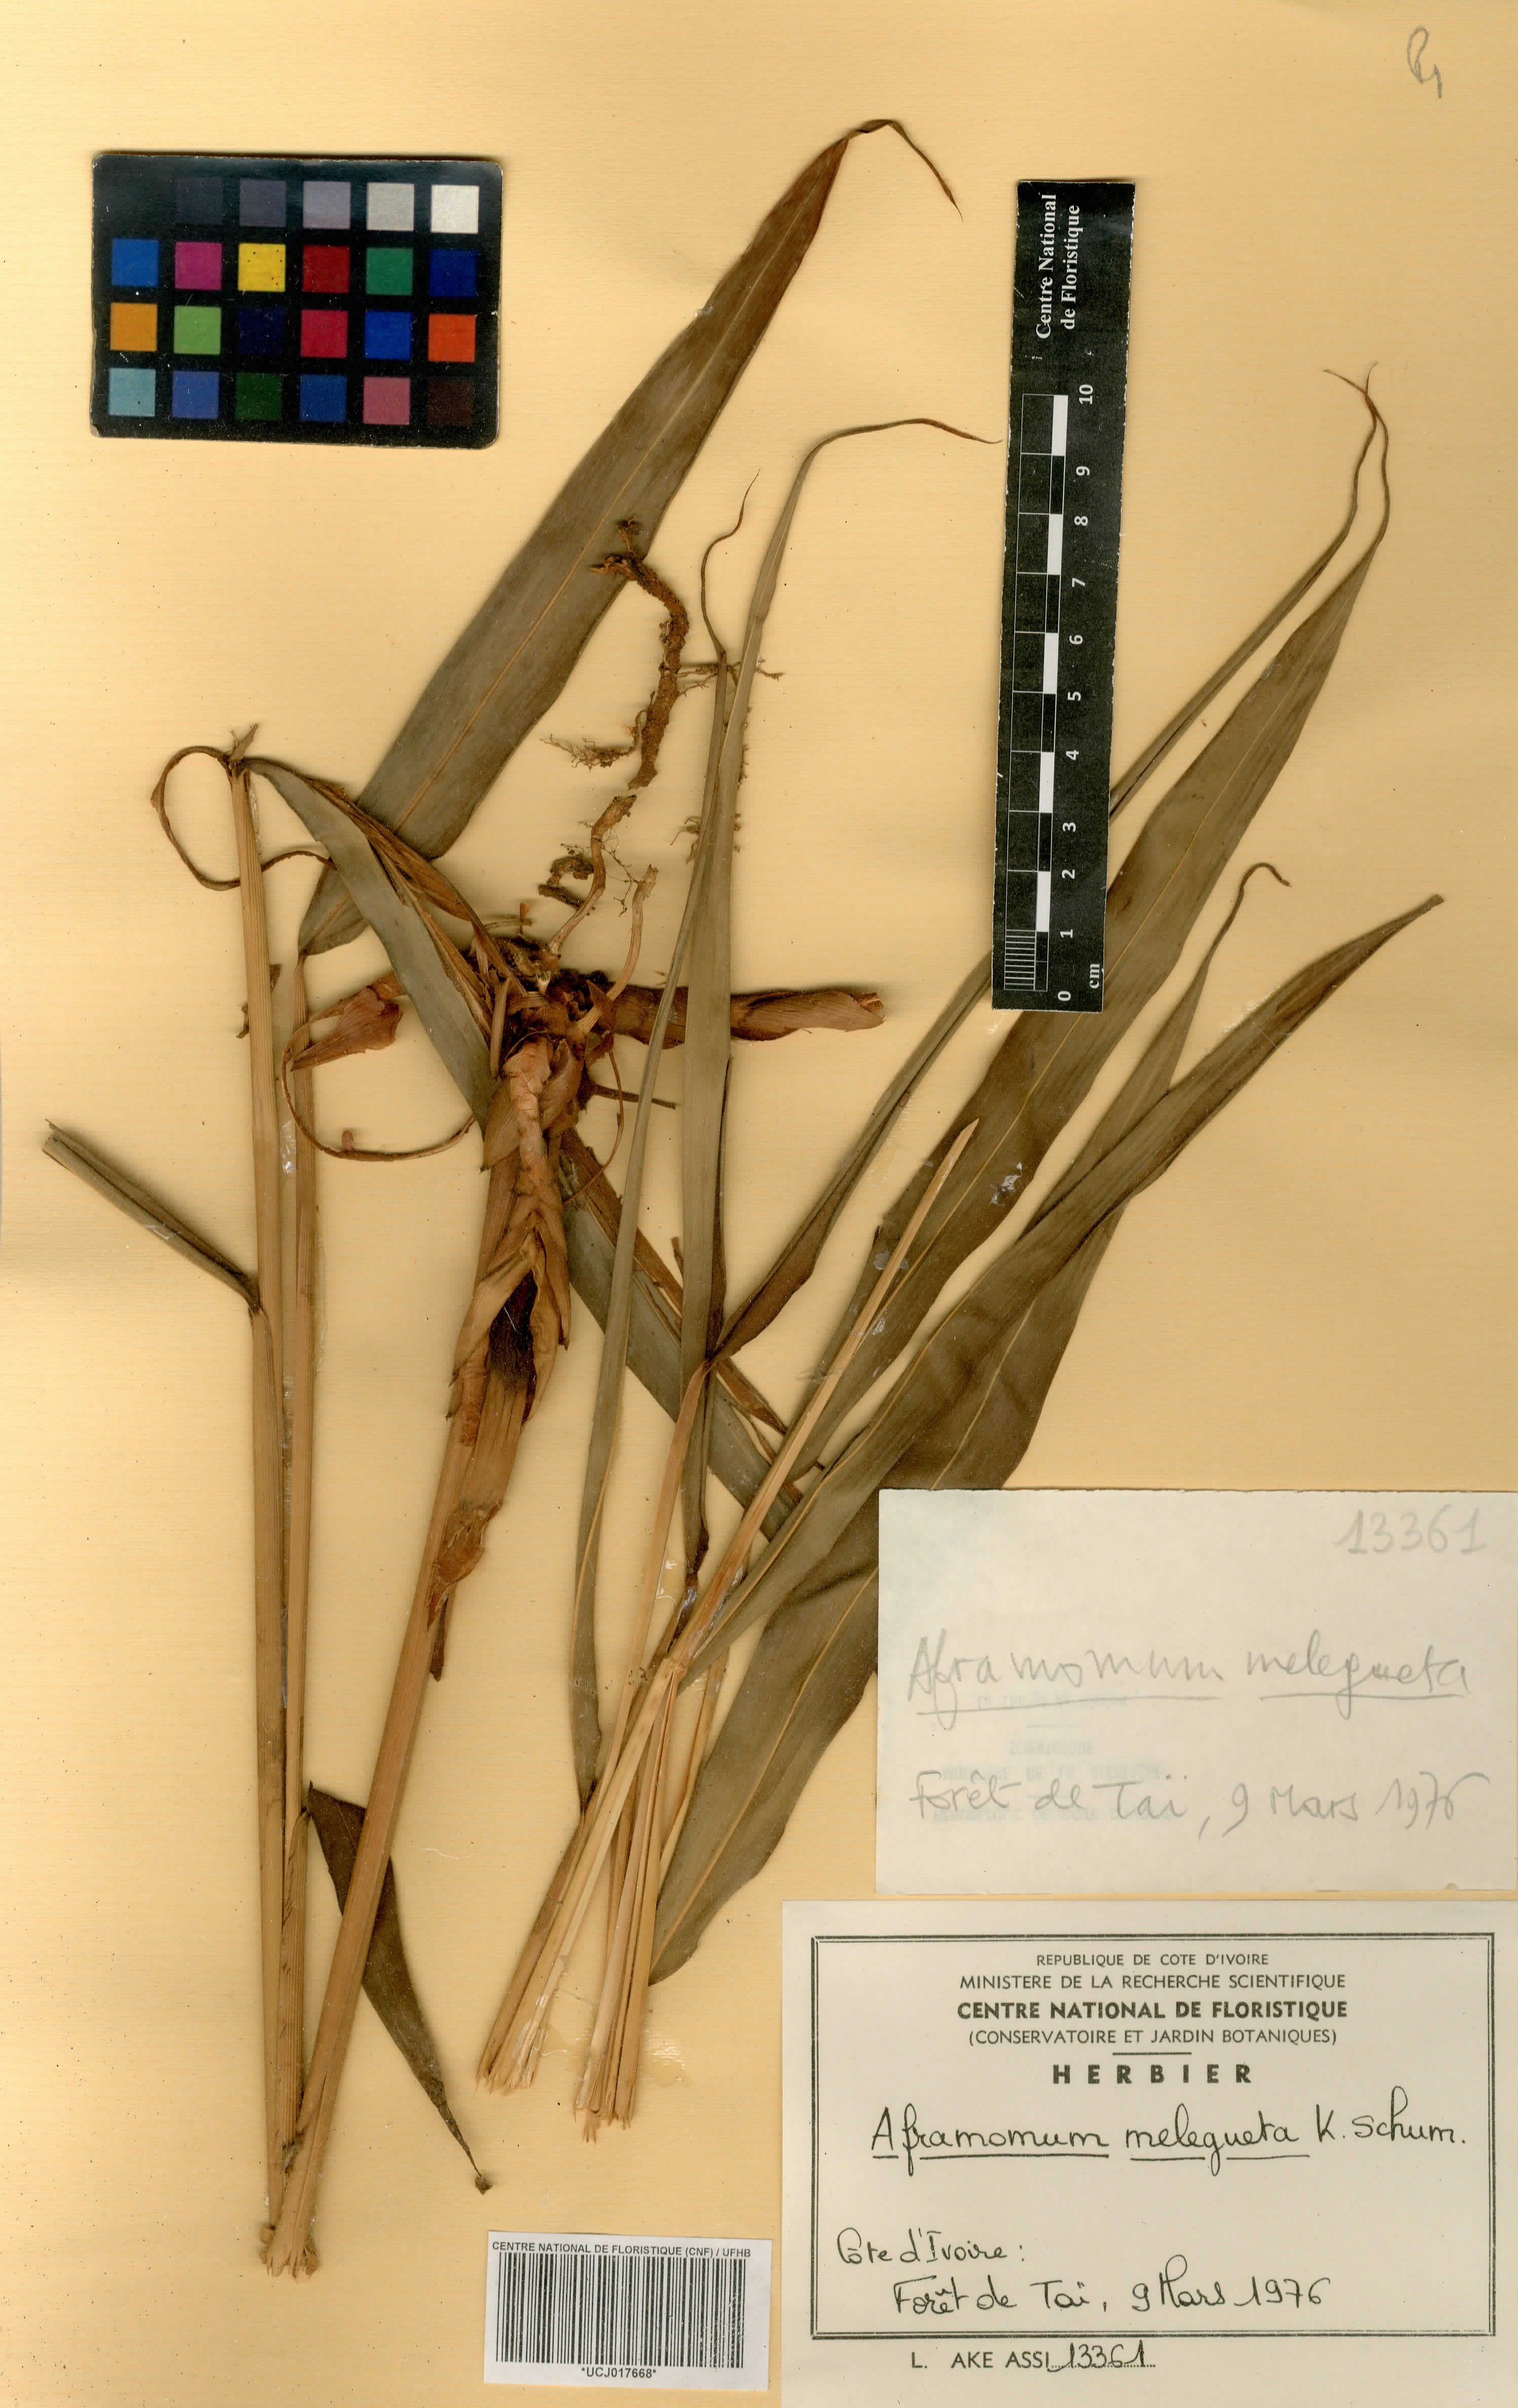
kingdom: Plantae
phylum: Tracheophyta
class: Liliopsida
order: Zingiberales
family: Zingiberaceae
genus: Aframomum
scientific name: Aframomum melegueta
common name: Grains of paradise
